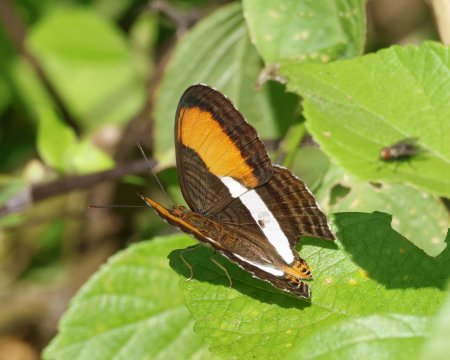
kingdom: Animalia
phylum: Arthropoda
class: Insecta
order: Lepidoptera
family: Nymphalidae
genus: Limenitis
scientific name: Limenitis cytherea
